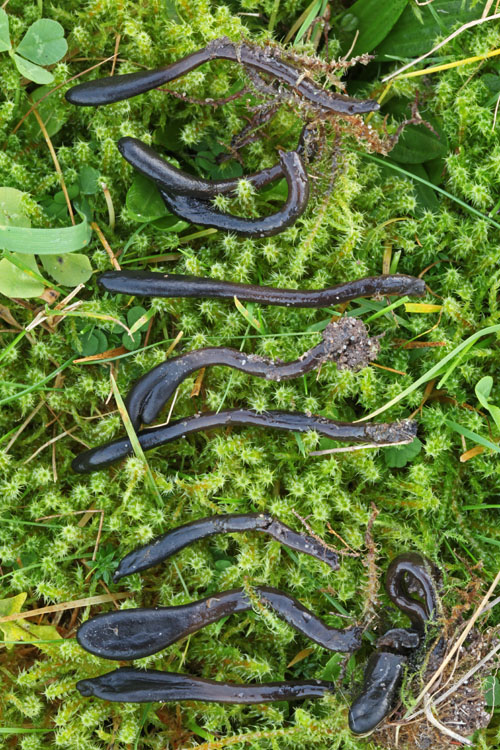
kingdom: Fungi
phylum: Ascomycota
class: Geoglossomycetes
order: Geoglossales
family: Geoglossaceae
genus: Glutinoglossum
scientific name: Glutinoglossum glutinosum
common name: slimet jordtunge
